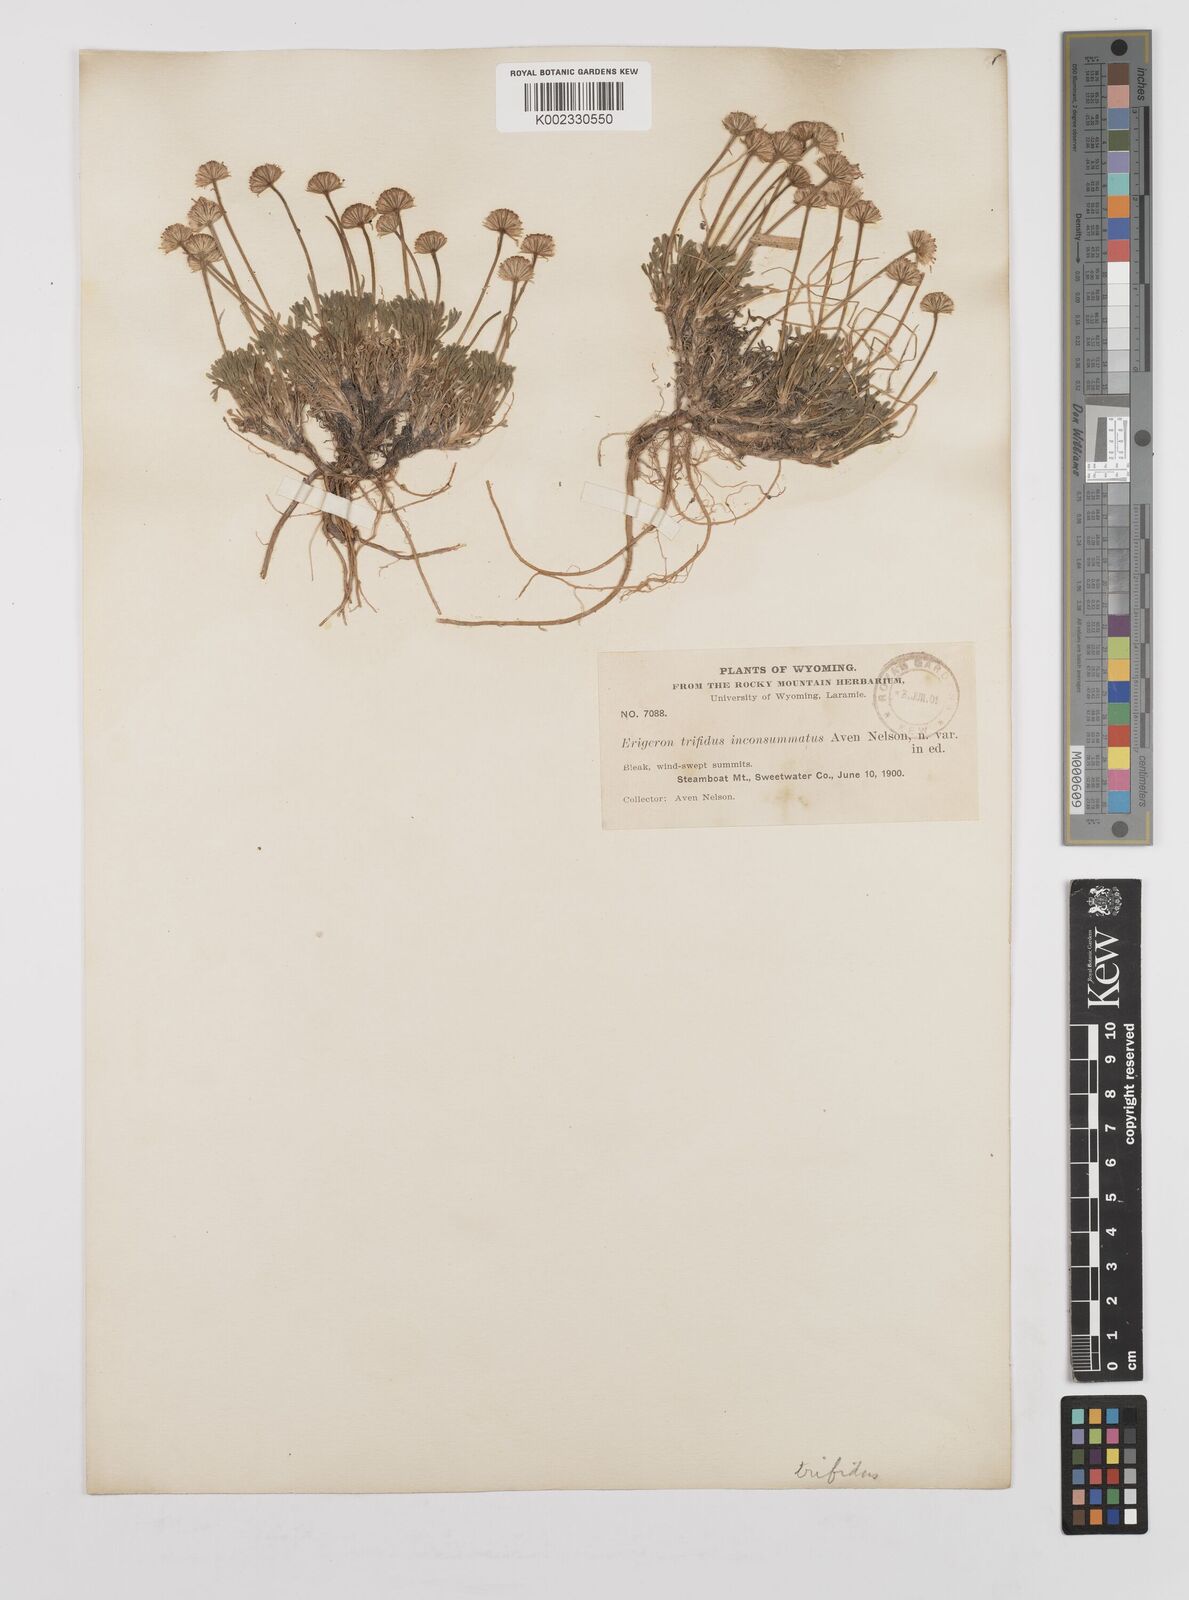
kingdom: Plantae
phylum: Tracheophyta
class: Magnoliopsida
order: Asterales
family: Asteraceae
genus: Erigeron
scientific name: Erigeron trifidus
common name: Alberta fleabane
